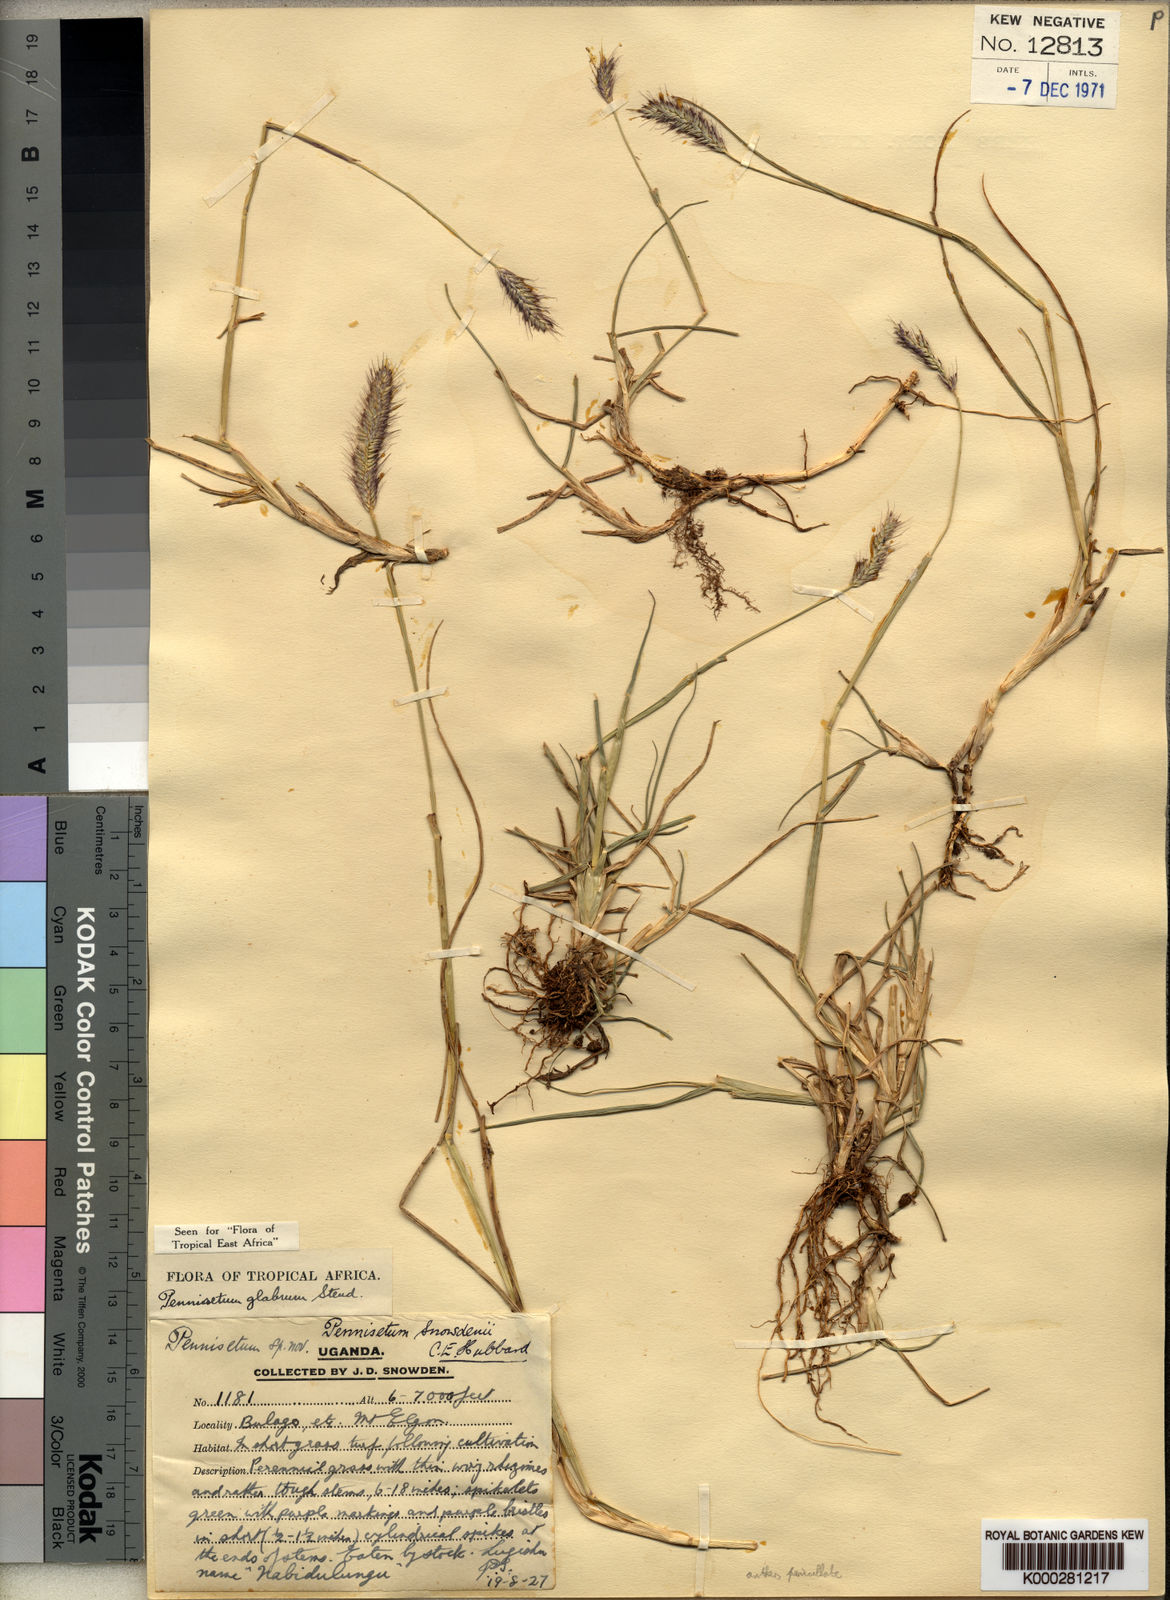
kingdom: Plantae
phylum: Tracheophyta
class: Liliopsida
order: Poales
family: Poaceae
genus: Cenchrus
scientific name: Cenchrus geniculatus
